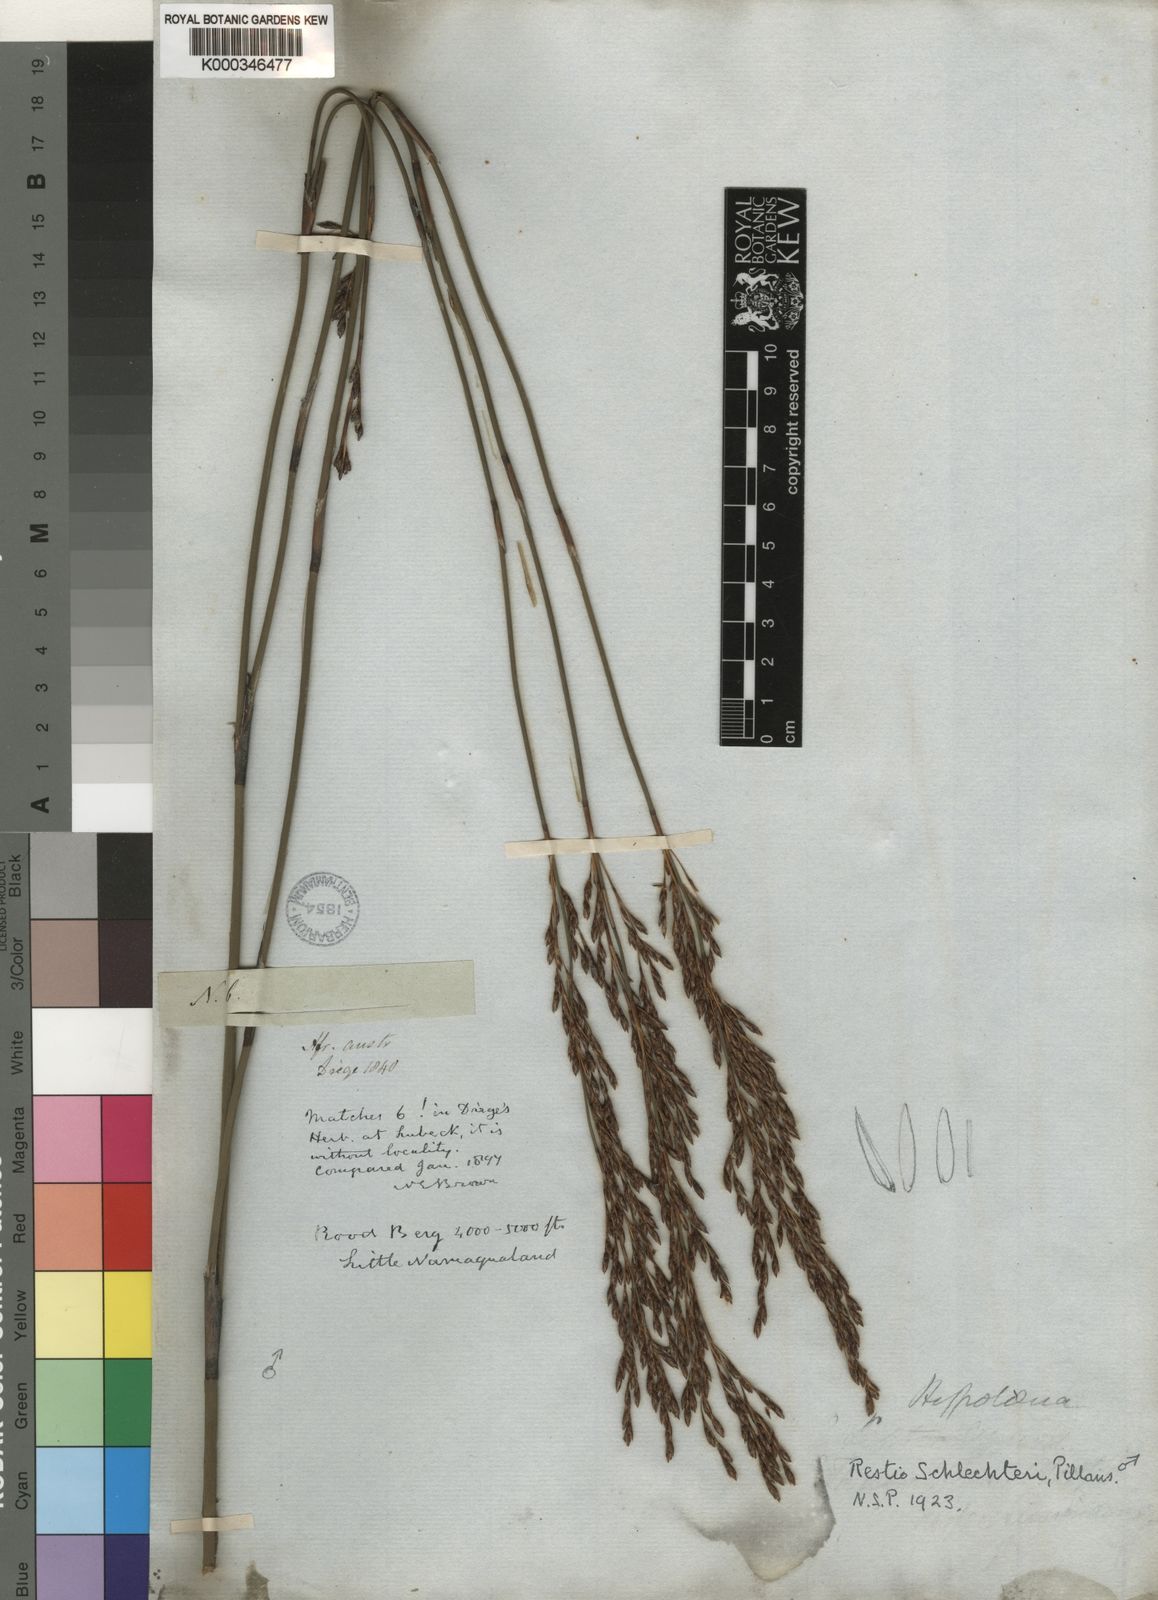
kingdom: Plantae
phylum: Tracheophyta
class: Liliopsida
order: Poales
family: Restionaceae
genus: Restio
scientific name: Restio cymosus
